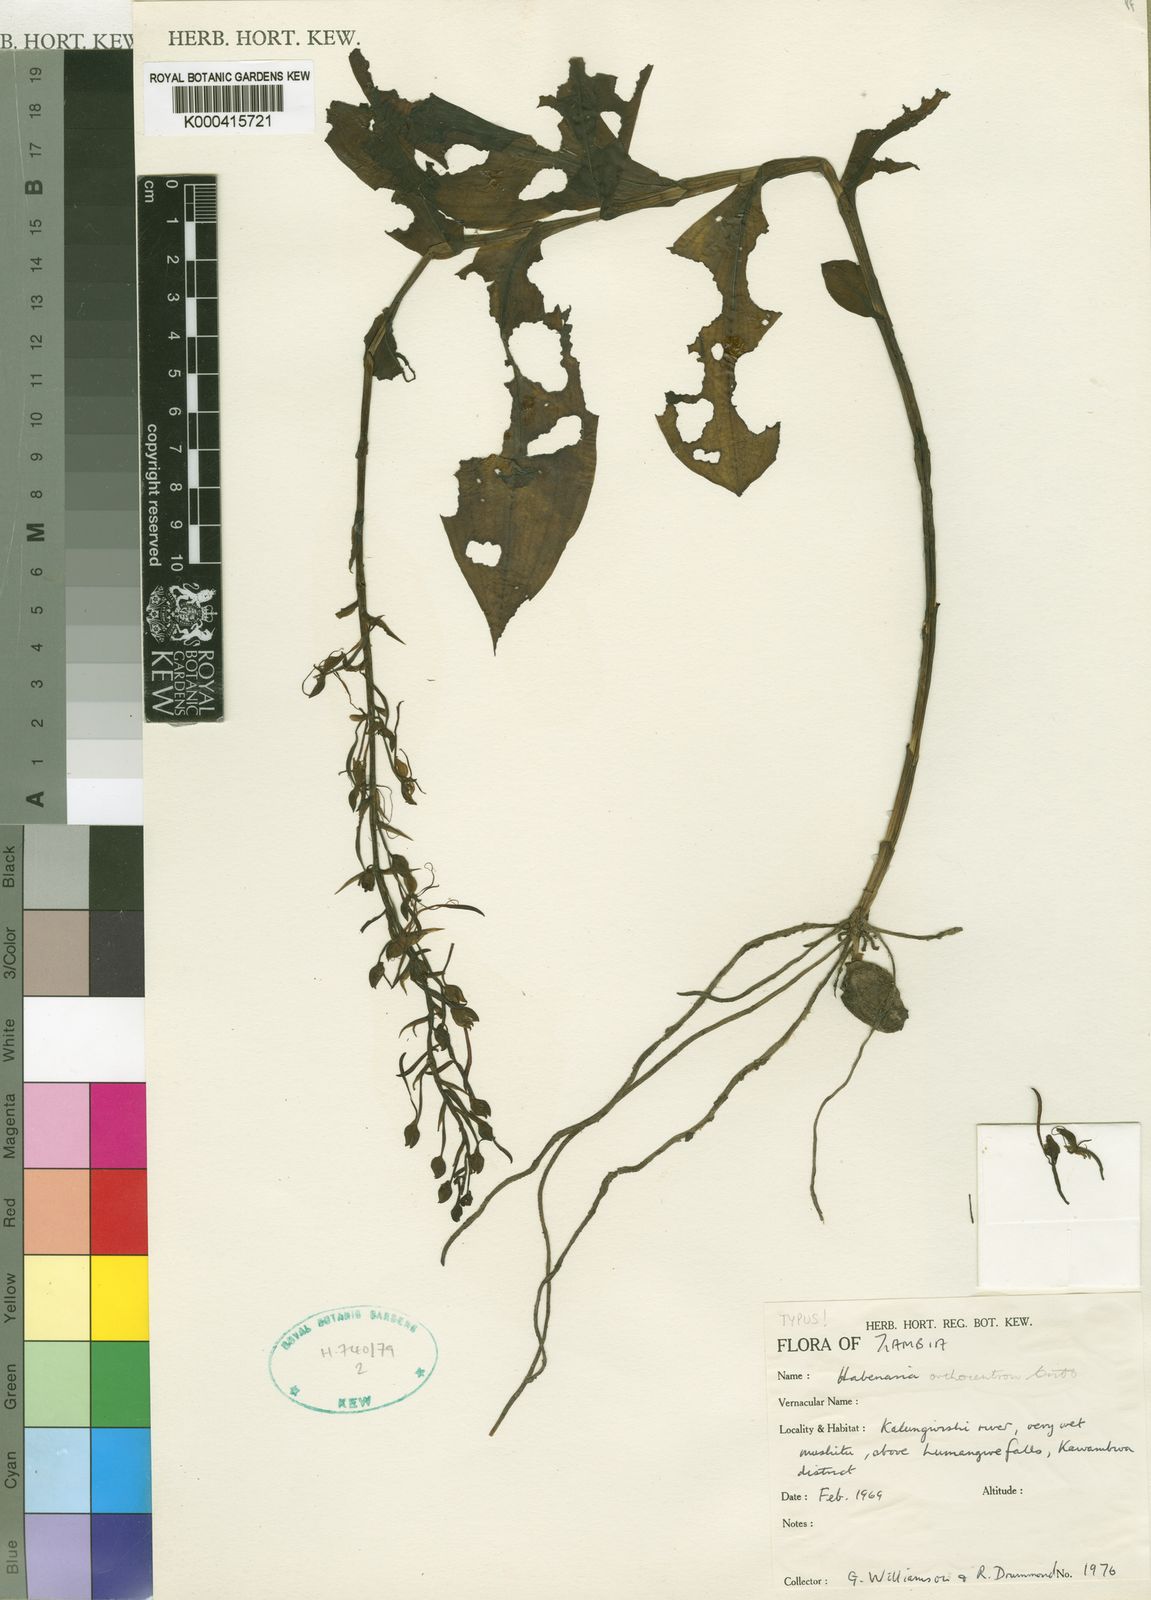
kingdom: Plantae
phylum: Tracheophyta
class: Liliopsida
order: Asparagales
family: Orchidaceae
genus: Habenaria
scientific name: Habenaria orthocentron
